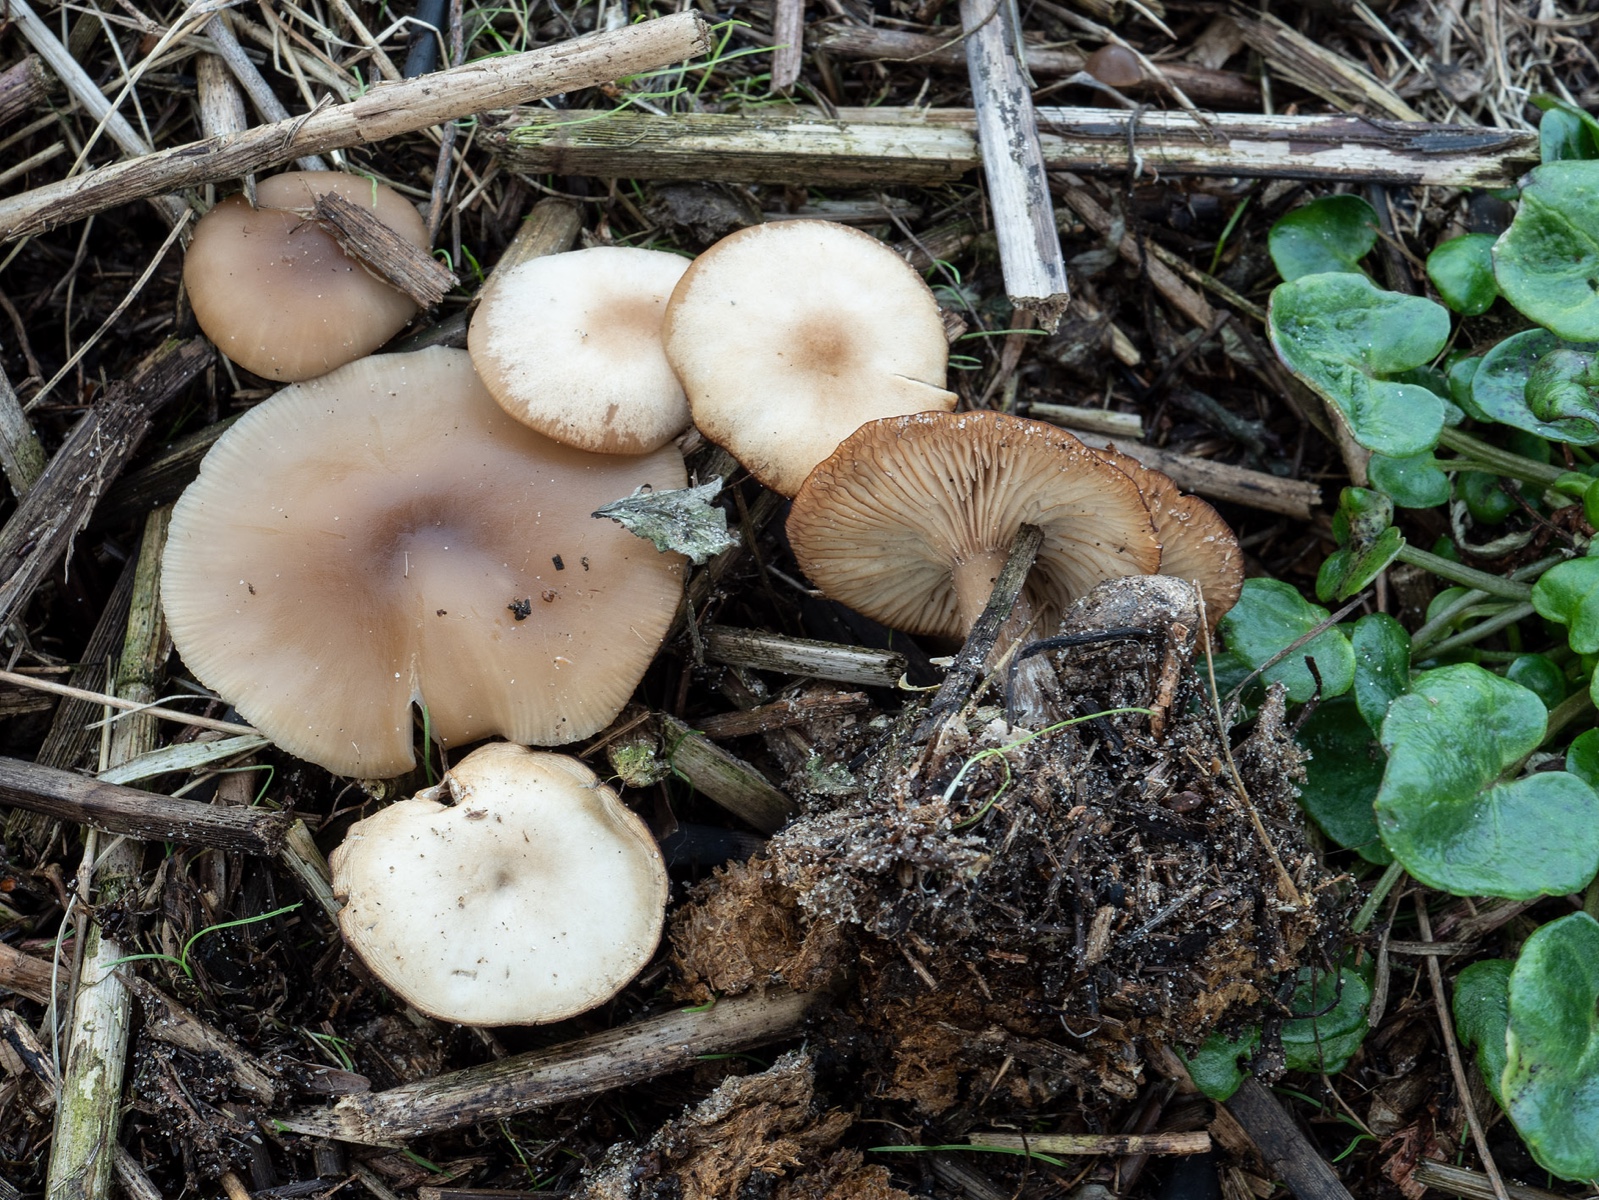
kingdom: Fungi
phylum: Basidiomycota
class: Agaricomycetes
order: Agaricales
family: Tricholomataceae
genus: Clitocybe
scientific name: Clitocybe amarescens
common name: gødnings-tragthat
